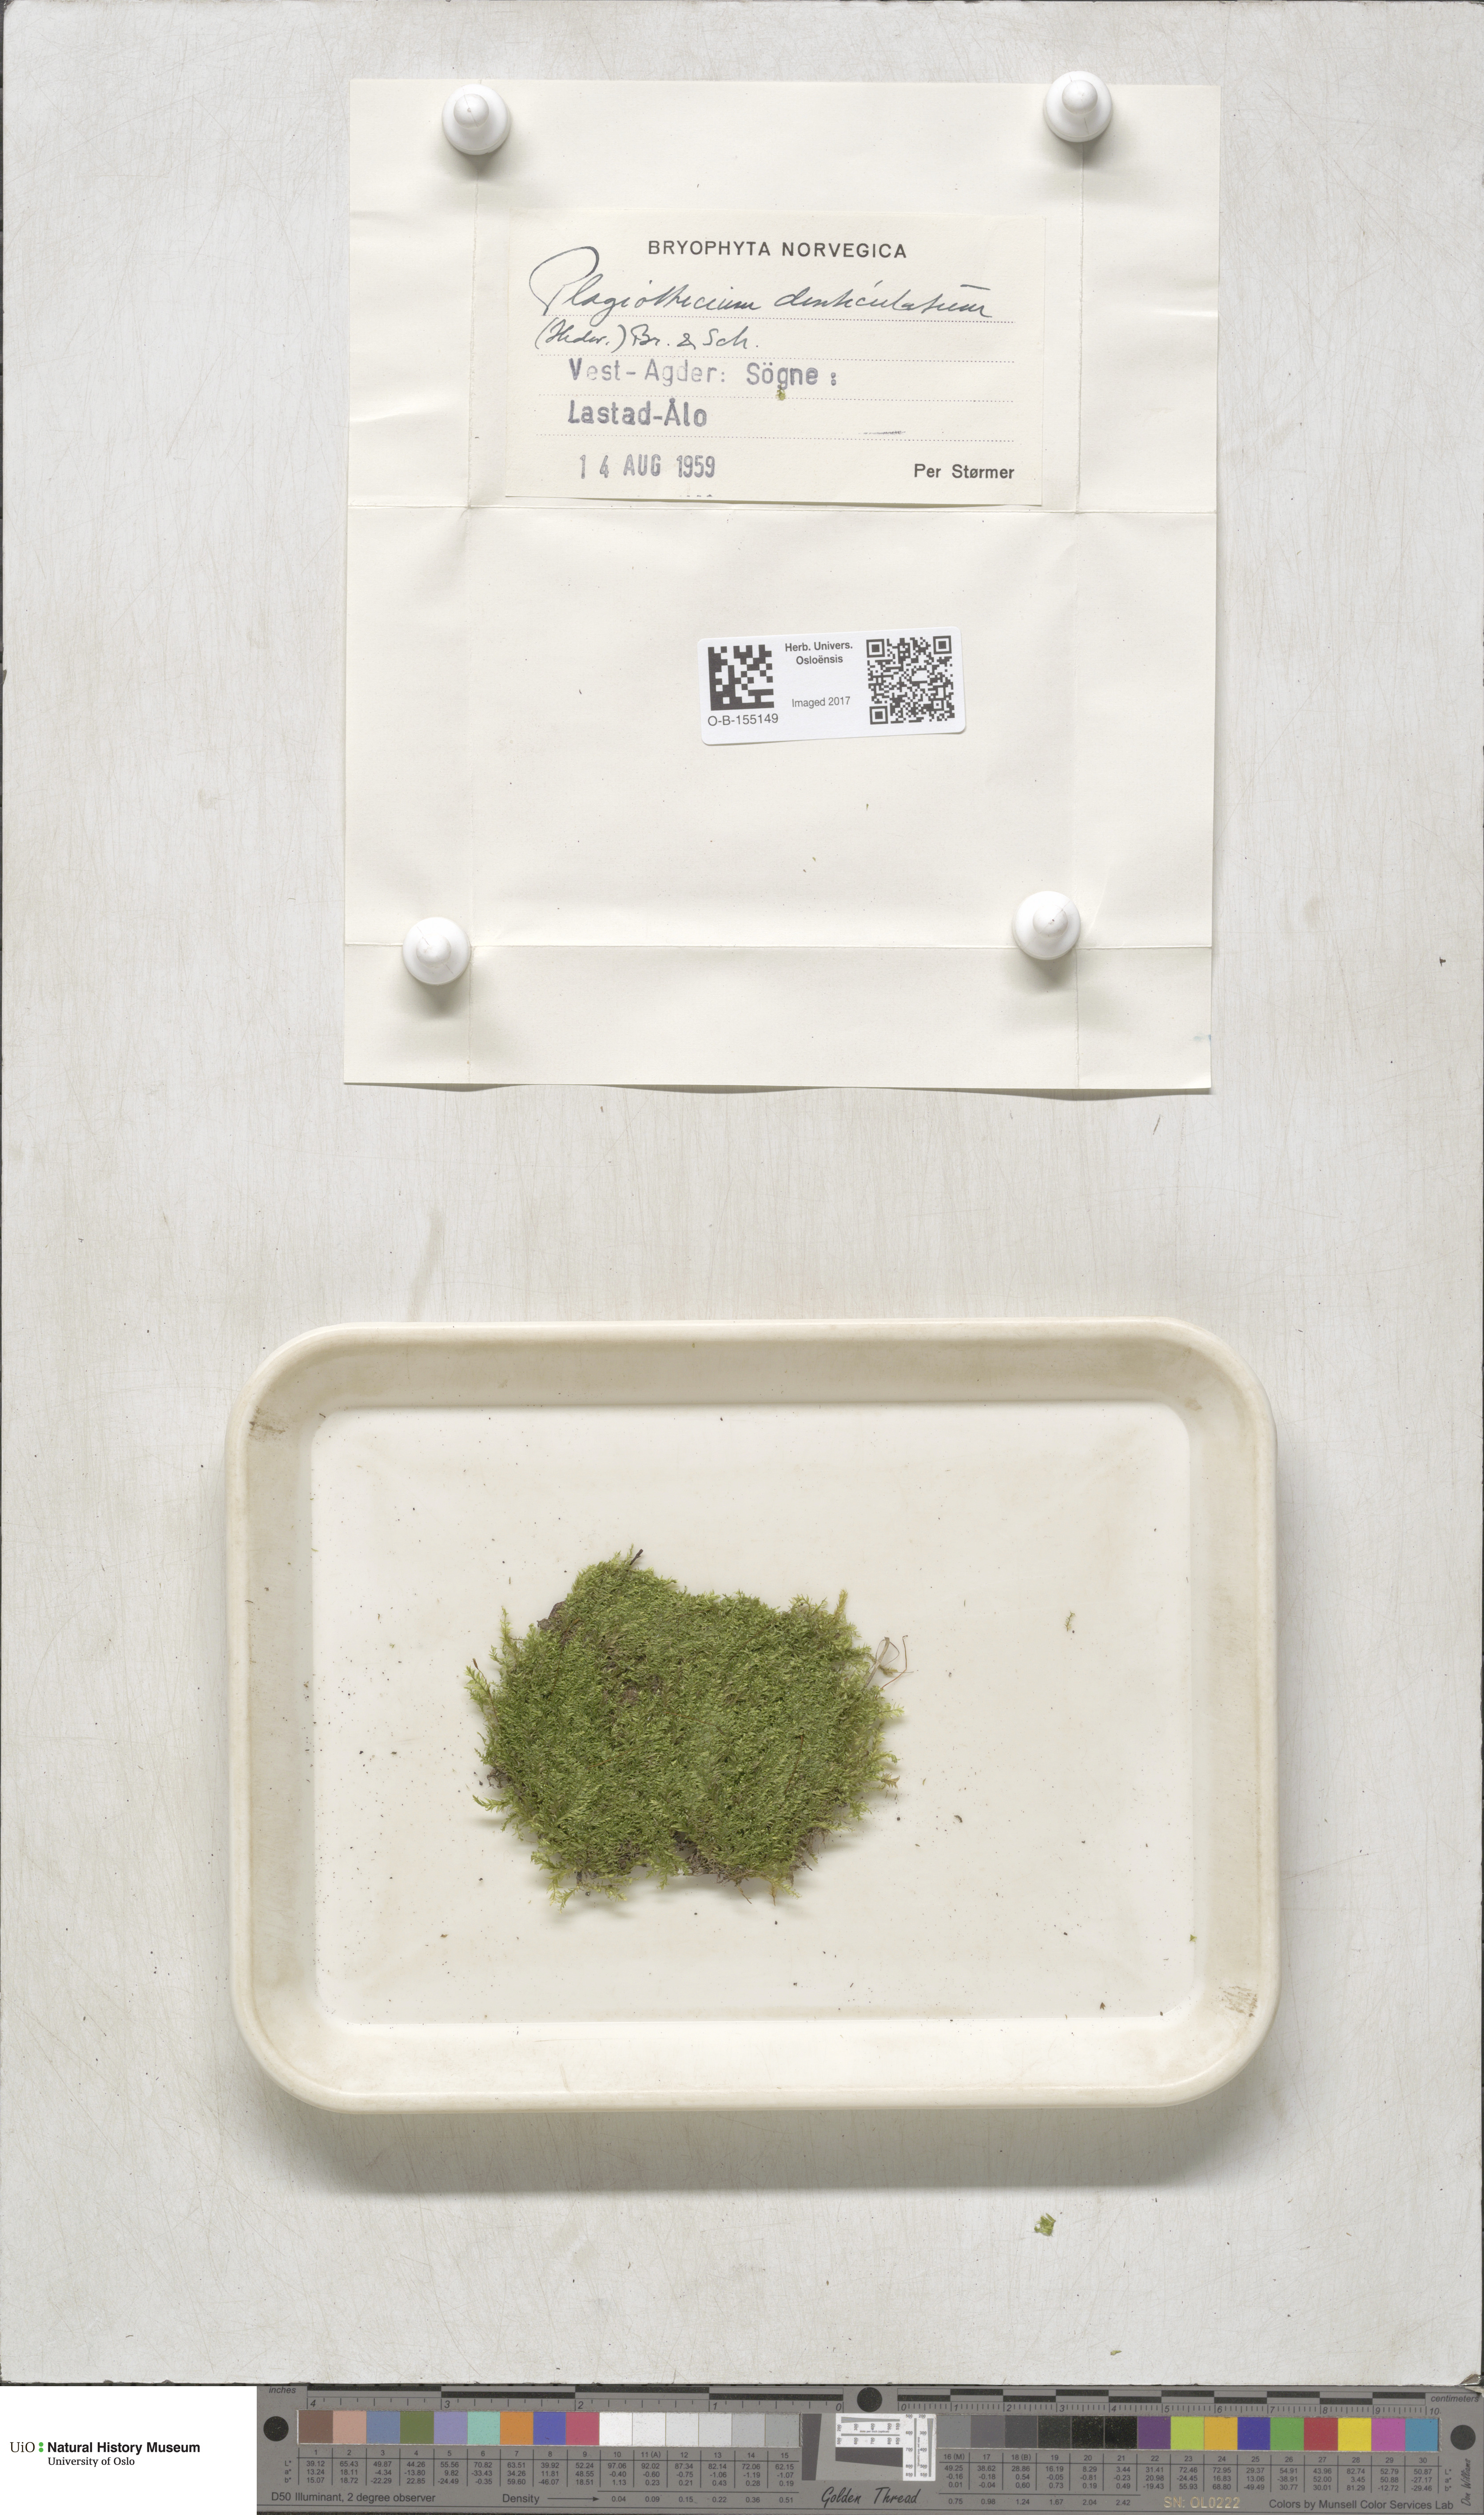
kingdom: Plantae
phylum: Bryophyta
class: Bryopsida
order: Hypnales
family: Plagiotheciaceae
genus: Plagiothecium
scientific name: Plagiothecium denticulatum
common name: Dented silk moss
